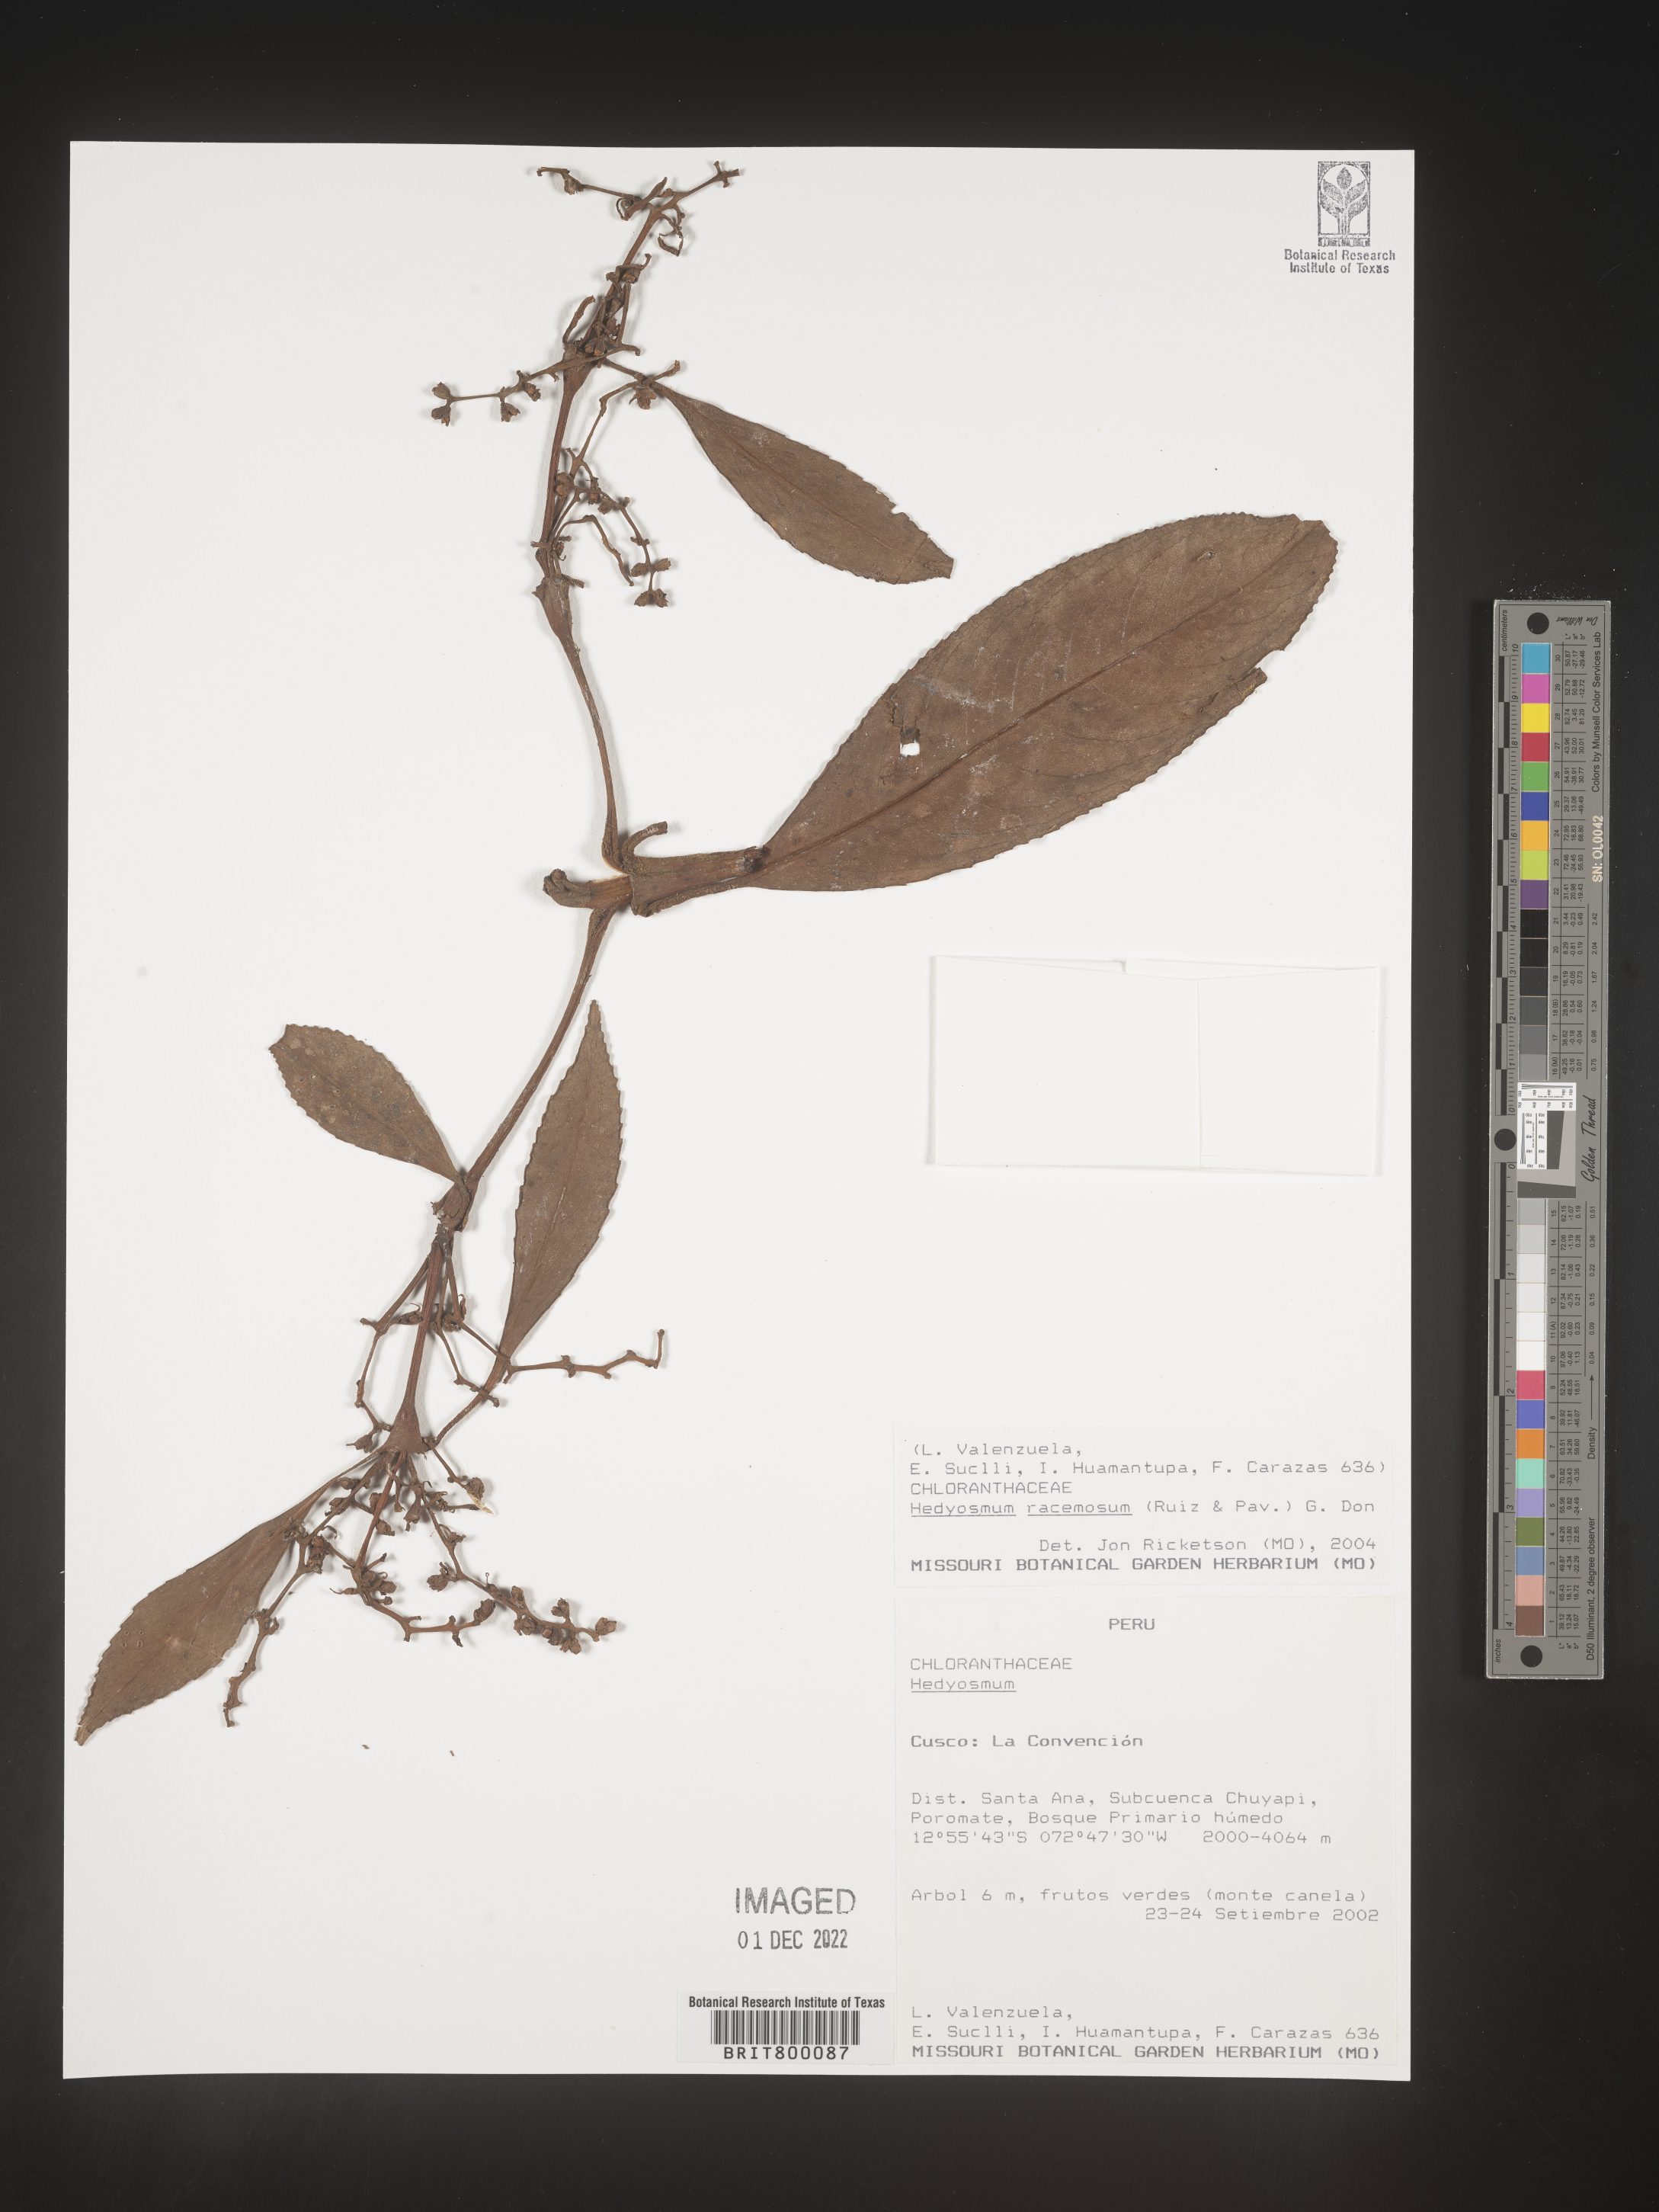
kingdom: Plantae
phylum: Tracheophyta
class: Magnoliopsida
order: Chloranthales
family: Chloranthaceae
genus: Hedyosmum
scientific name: Hedyosmum
